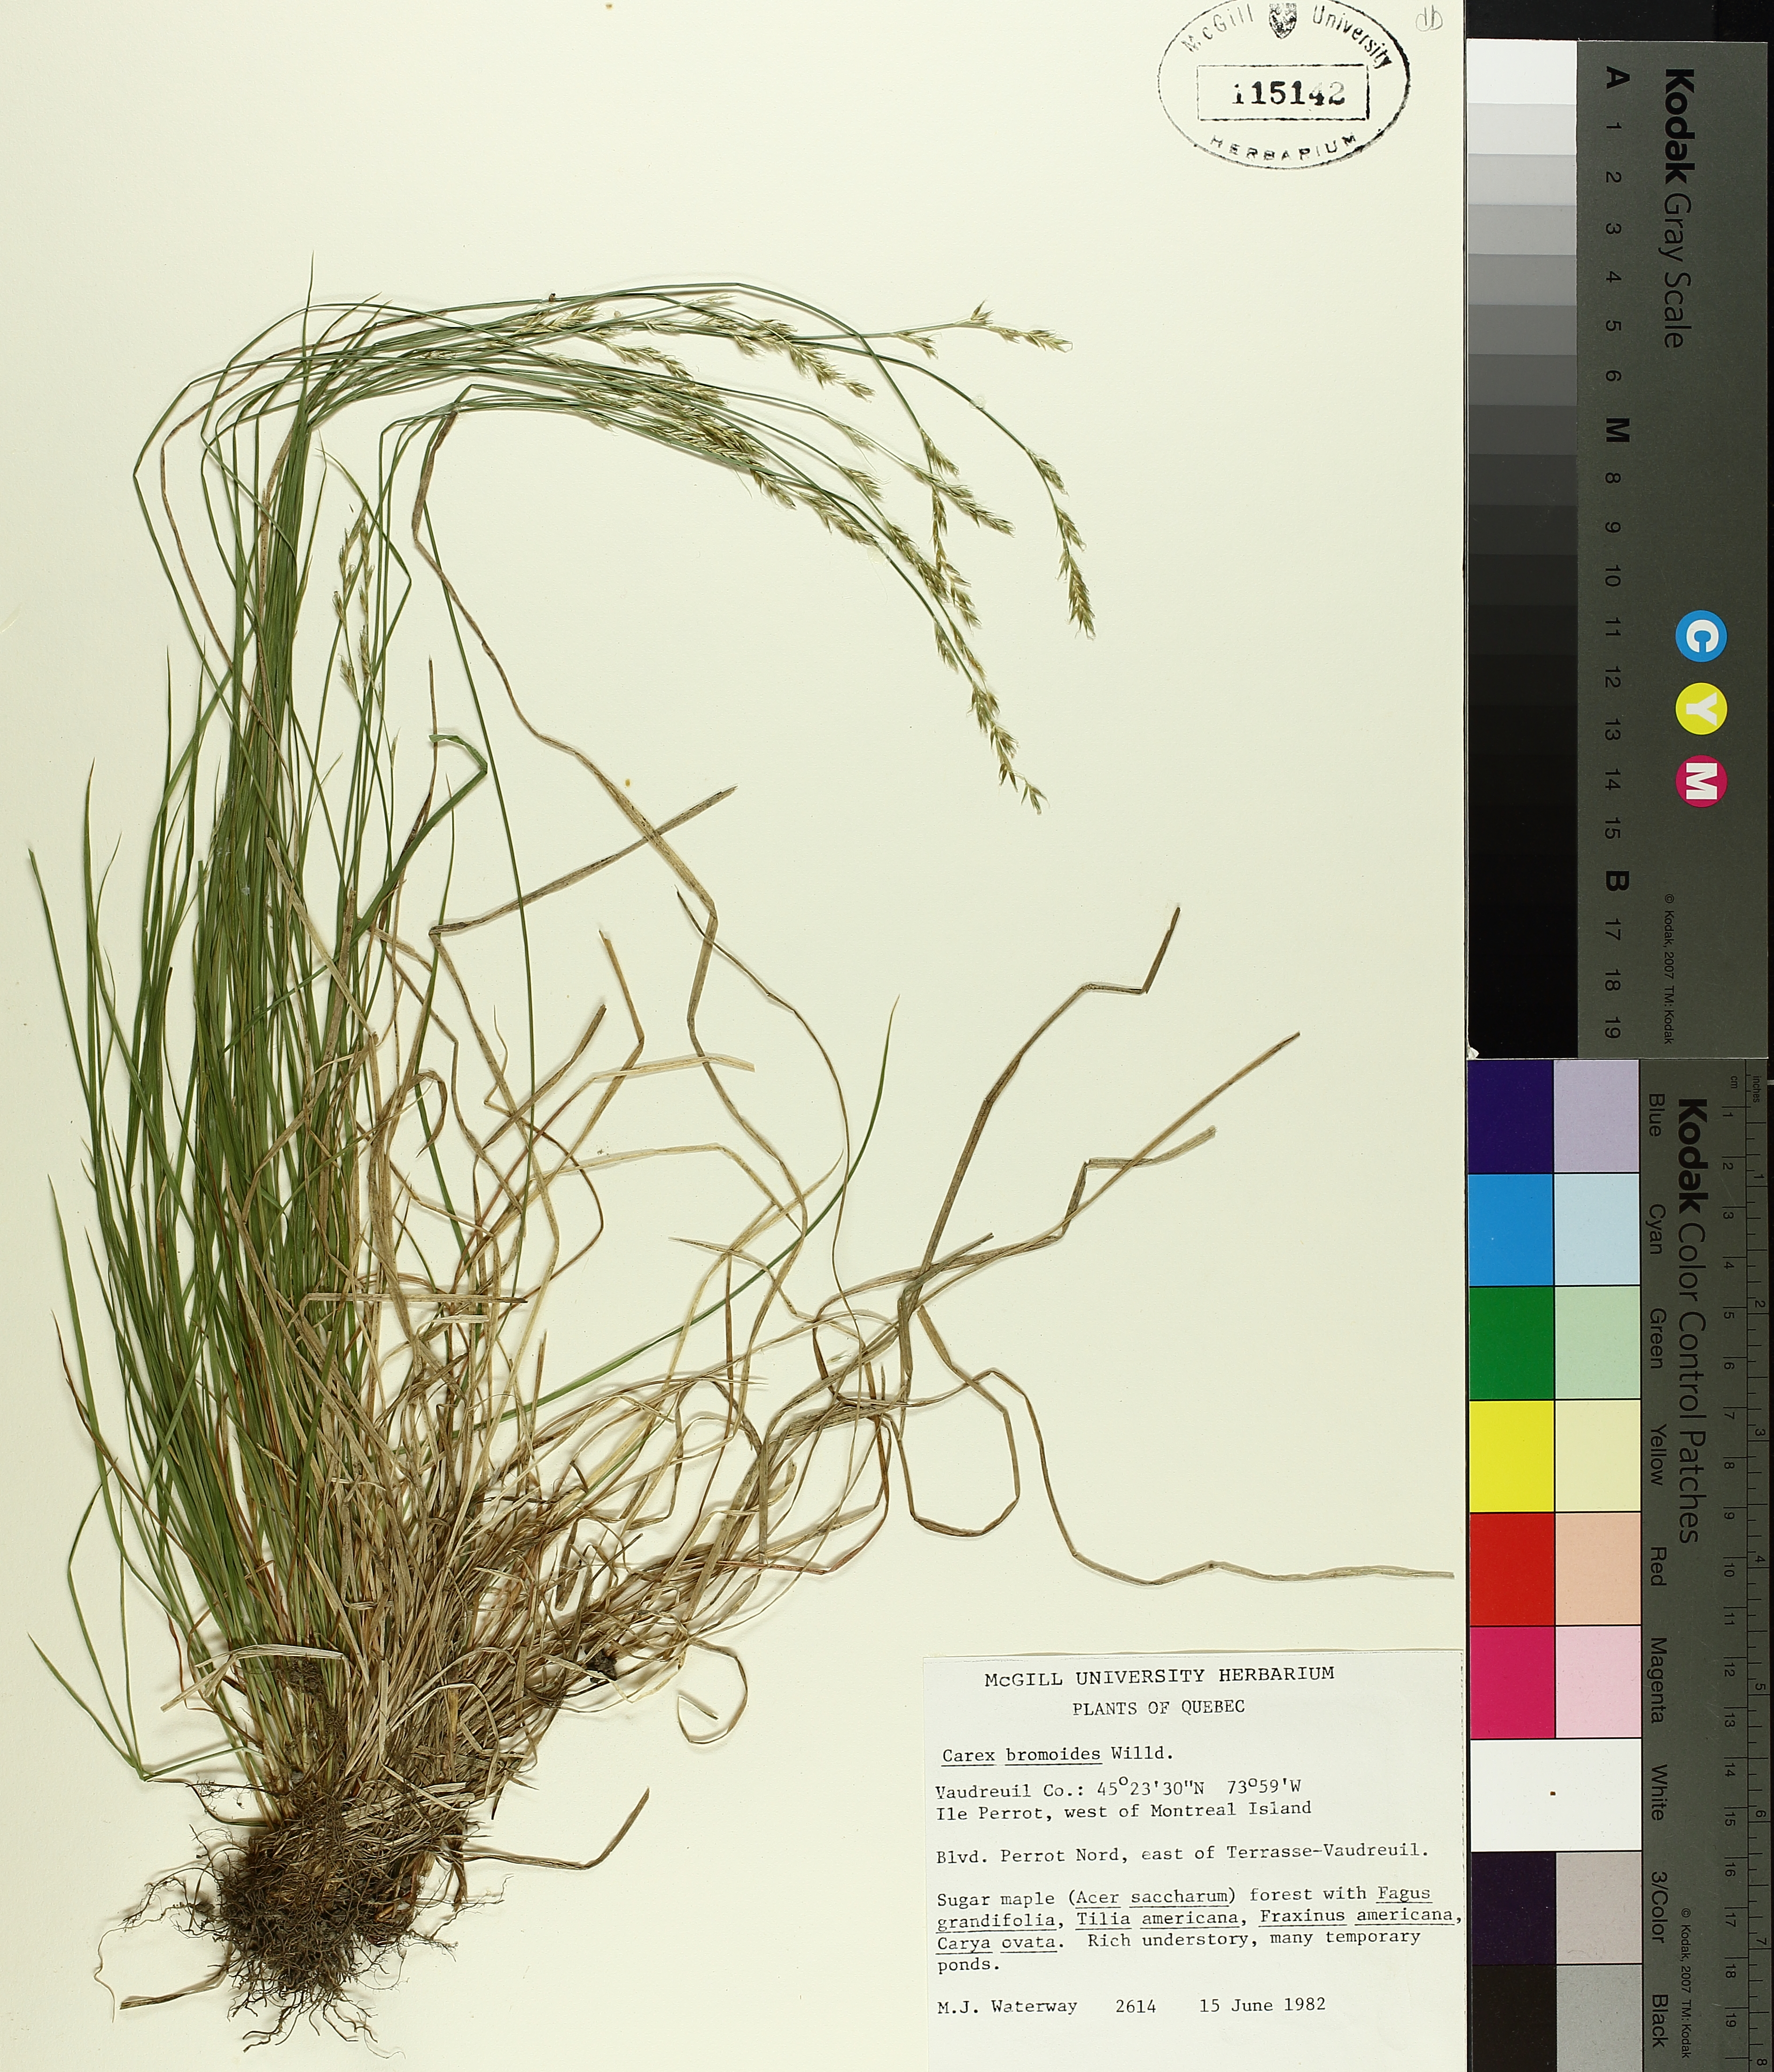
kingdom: Plantae
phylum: Tracheophyta
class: Liliopsida
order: Poales
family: Cyperaceae
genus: Carex
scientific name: Carex bromoides
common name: Brome hummock sedge
